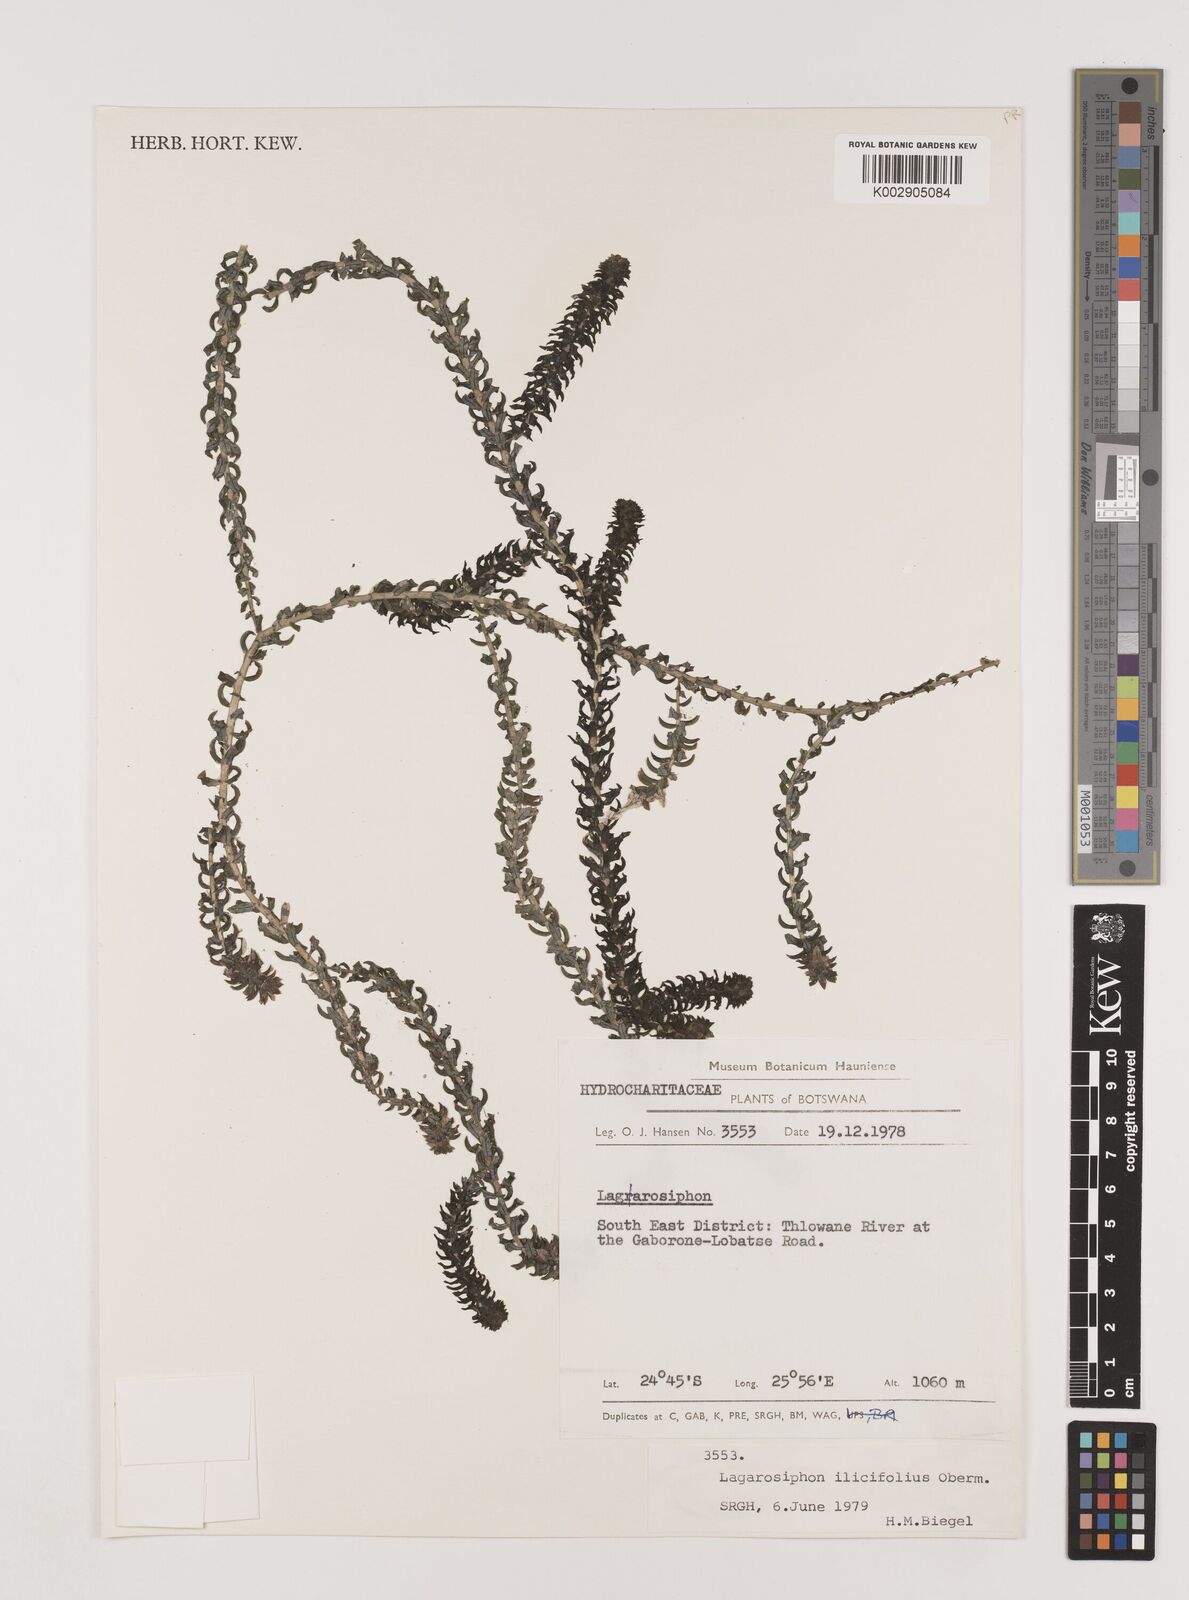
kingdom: Plantae
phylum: Tracheophyta
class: Liliopsida
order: Alismatales
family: Hydrocharitaceae
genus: Lagarosiphon
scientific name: Lagarosiphon ilicifolius
